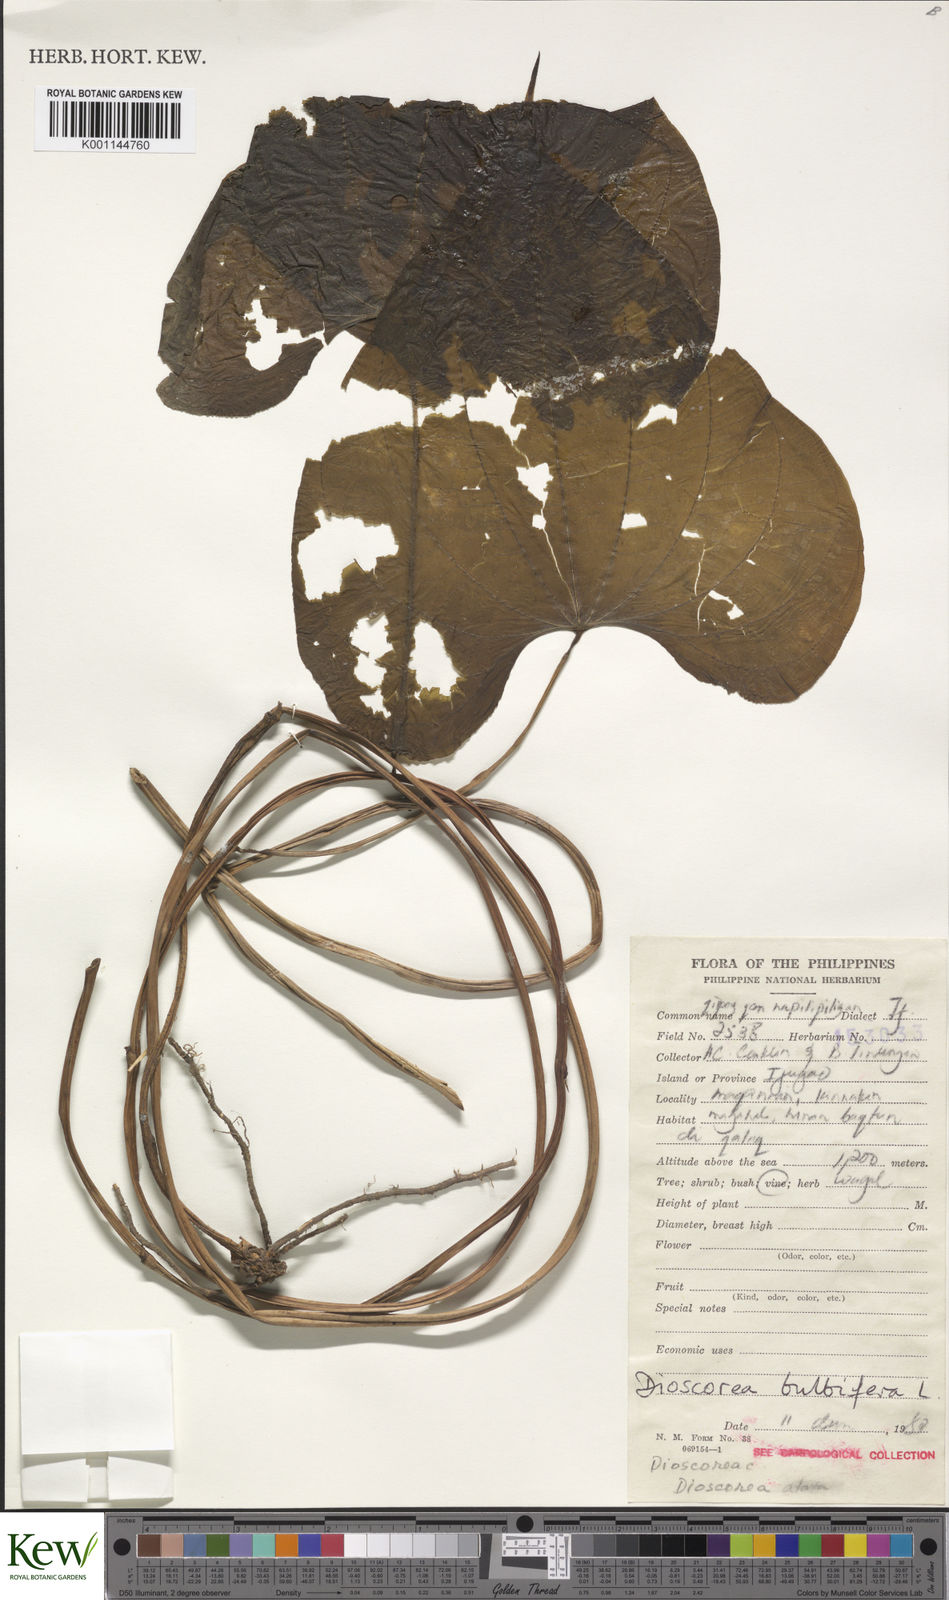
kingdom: Plantae
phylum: Tracheophyta
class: Liliopsida
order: Dioscoreales
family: Dioscoreaceae
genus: Dioscorea
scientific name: Dioscorea bulbifera
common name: Air yam
